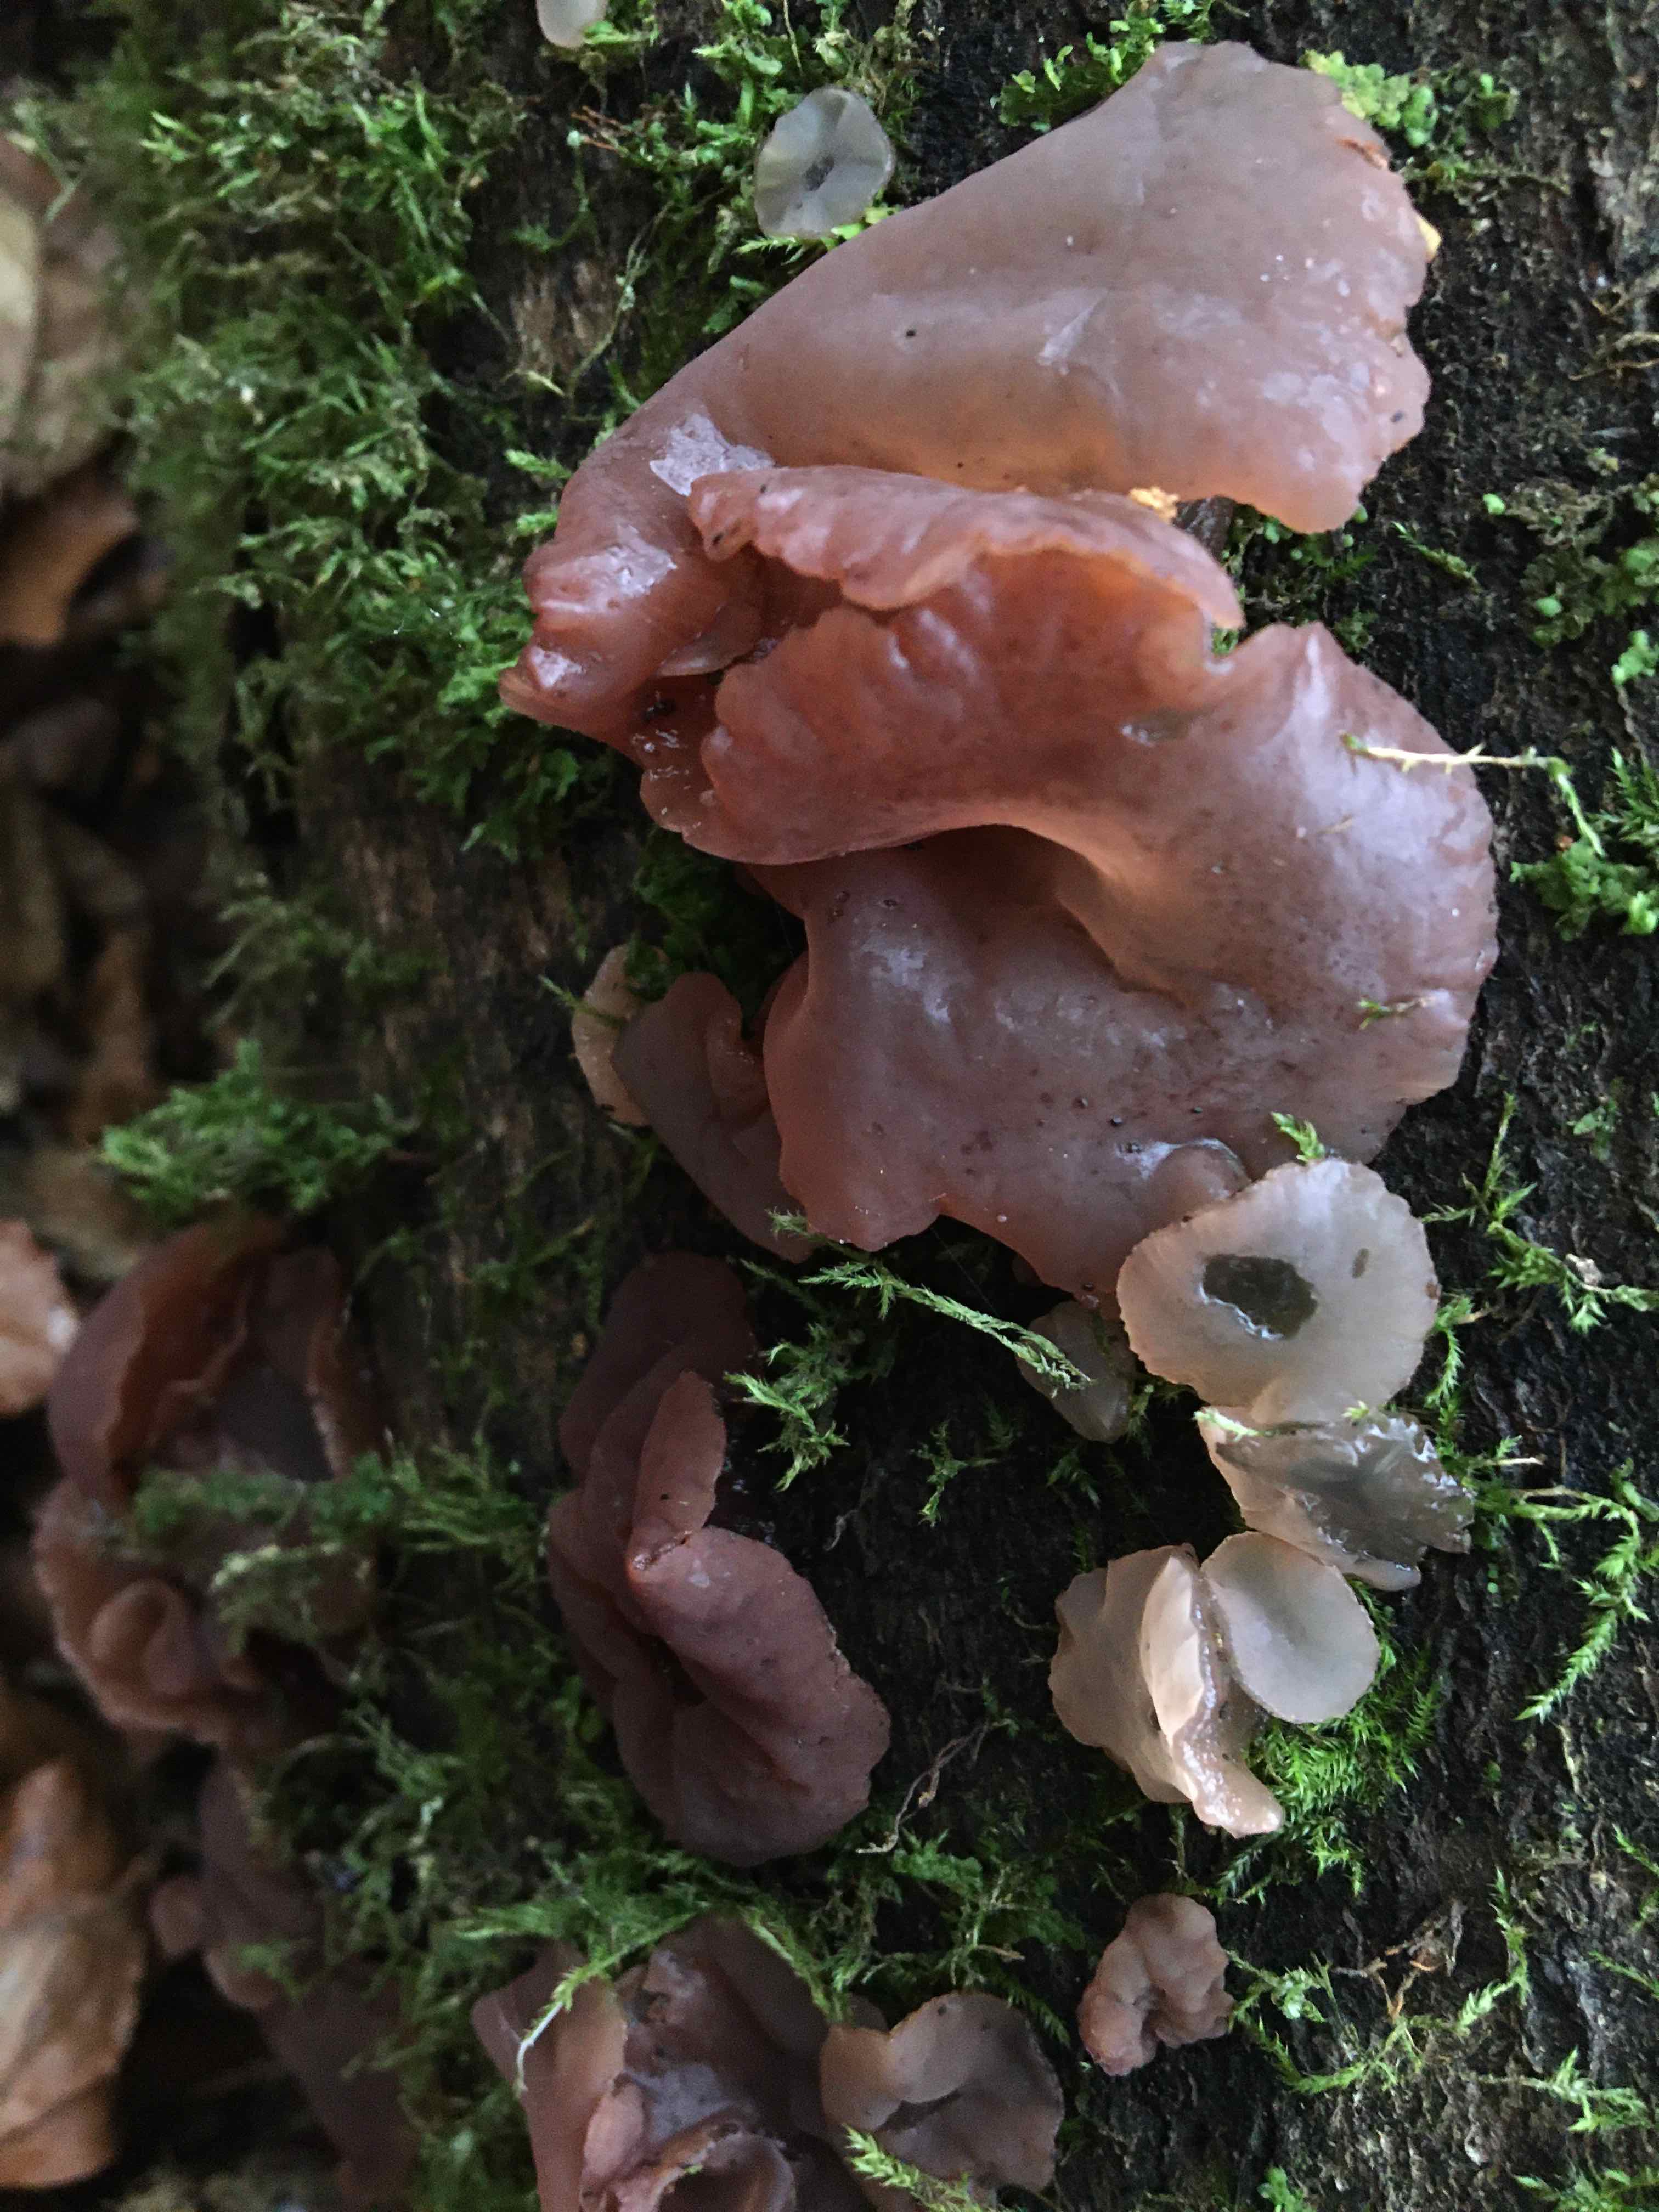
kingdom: Fungi
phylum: Ascomycota
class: Leotiomycetes
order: Helotiales
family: Gelatinodiscaceae
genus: Neobulgaria
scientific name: Neobulgaria pura
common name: bleg bævreskive
